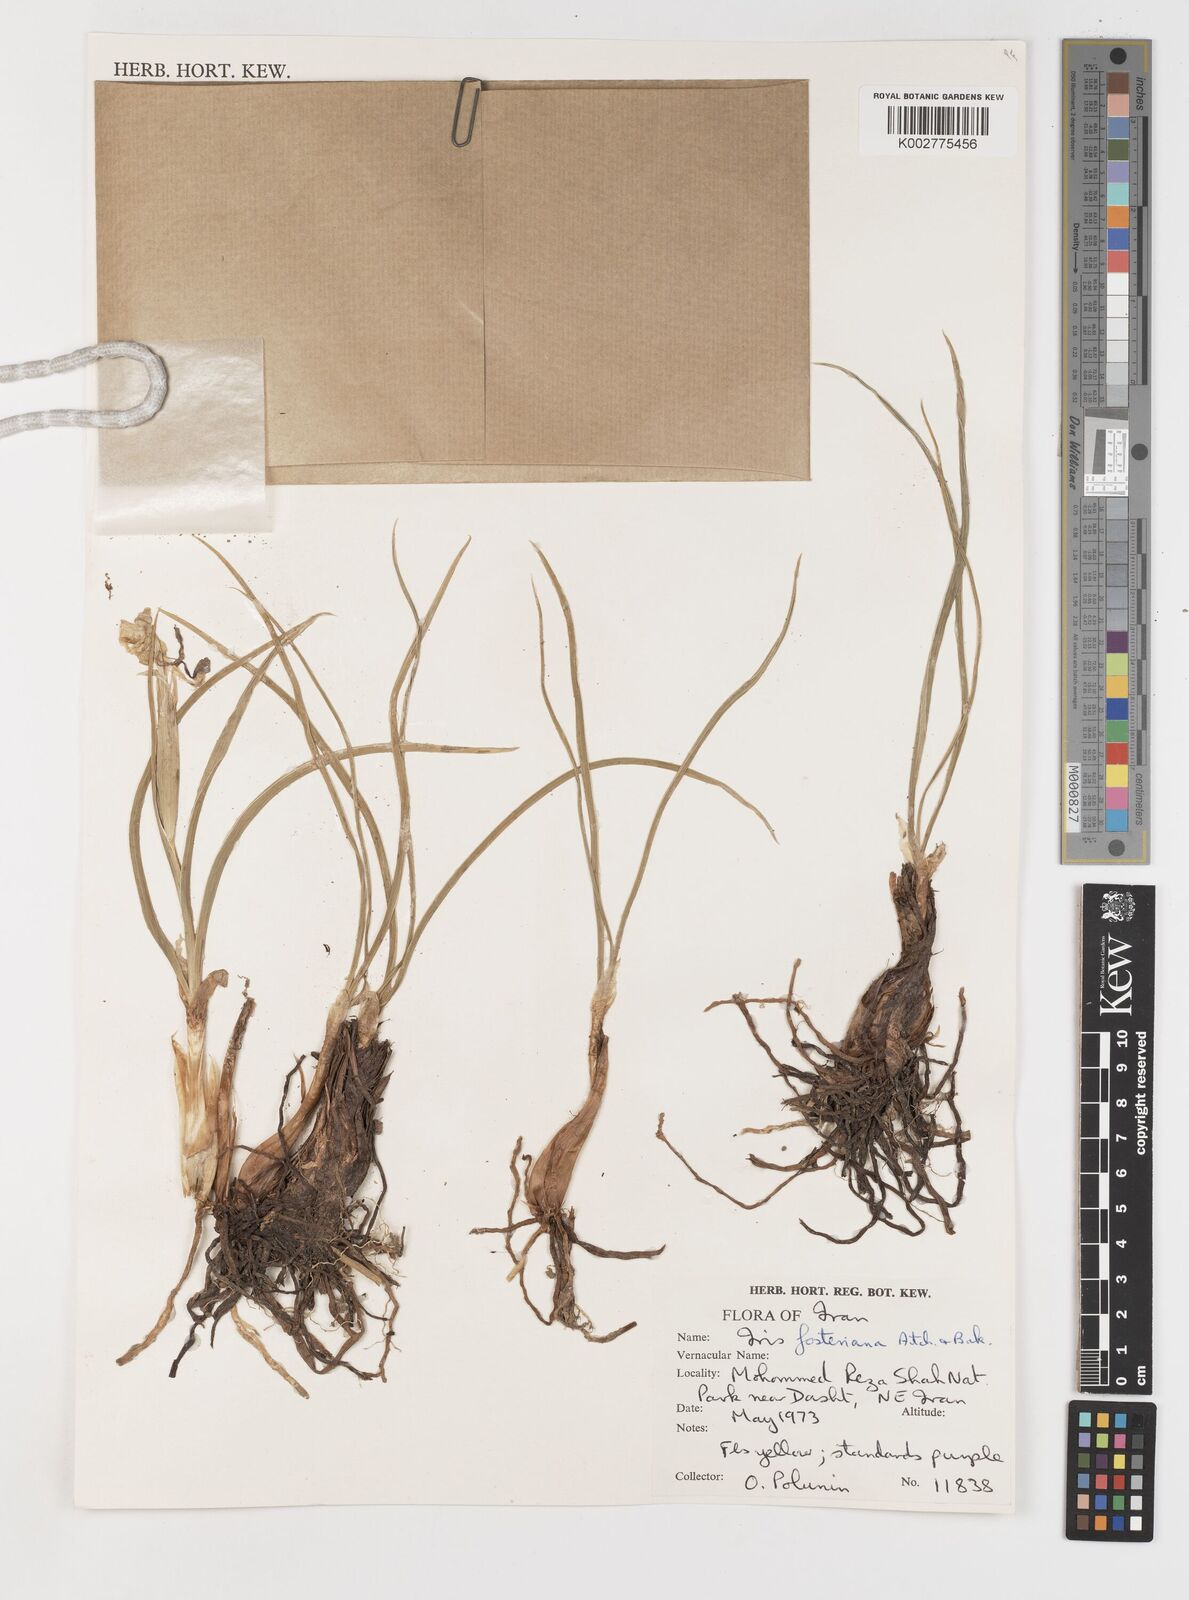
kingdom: Plantae
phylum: Tracheophyta
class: Liliopsida
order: Asparagales
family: Iridaceae
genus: Iris
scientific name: Iris fosteriana
